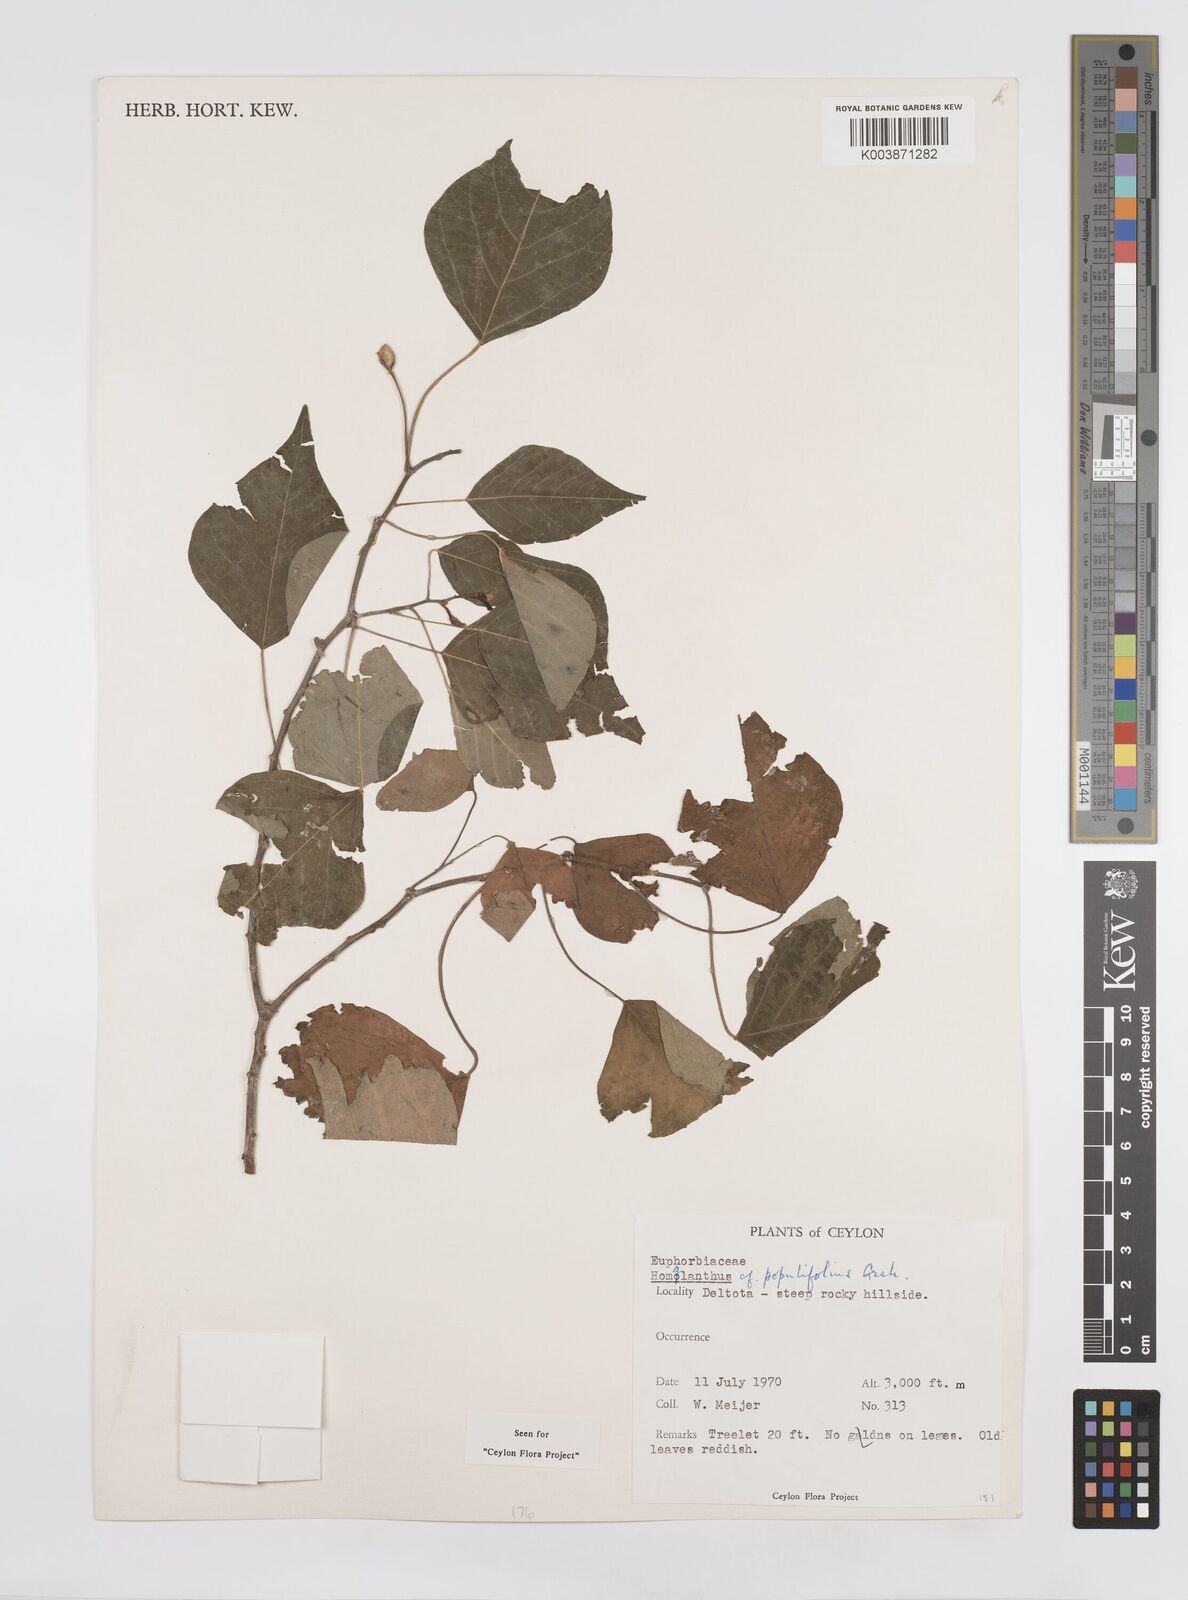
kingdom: Plantae
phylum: Tracheophyta
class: Magnoliopsida
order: Malpighiales
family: Euphorbiaceae
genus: Homalanthus
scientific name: Homalanthus populneus
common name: Spurge
